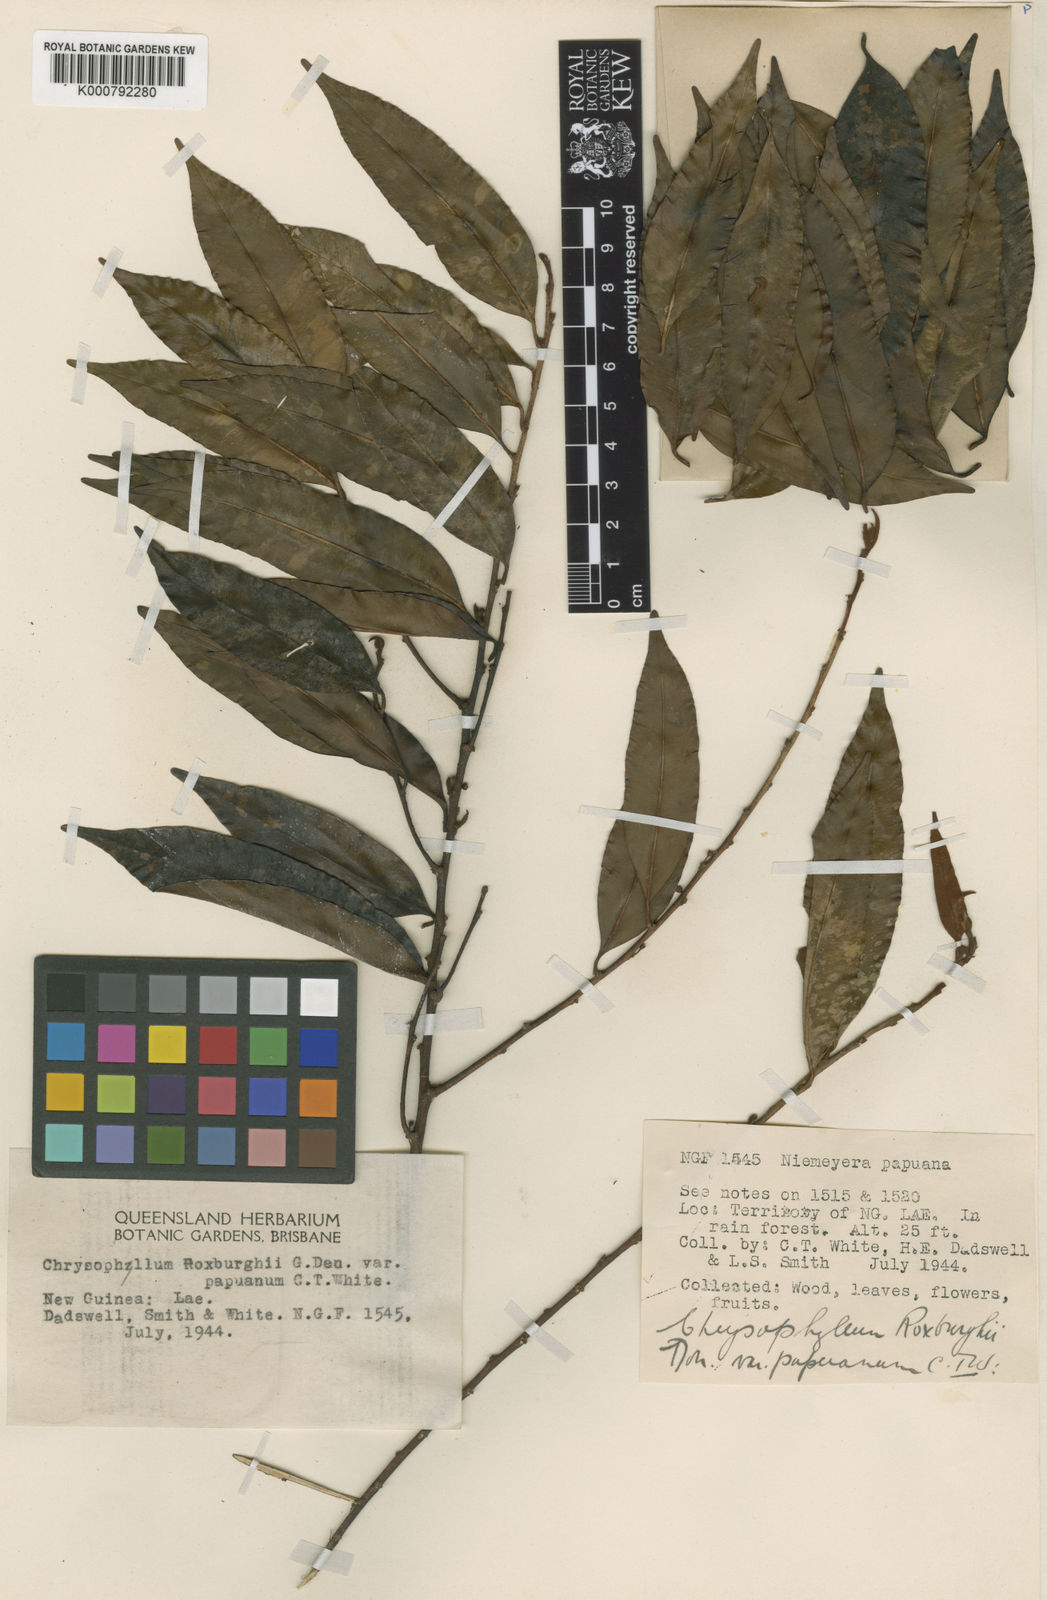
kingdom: Plantae
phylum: Tracheophyta
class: Magnoliopsida
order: Ericales
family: Sapotaceae
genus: Donella
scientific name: Donella lanceolata
